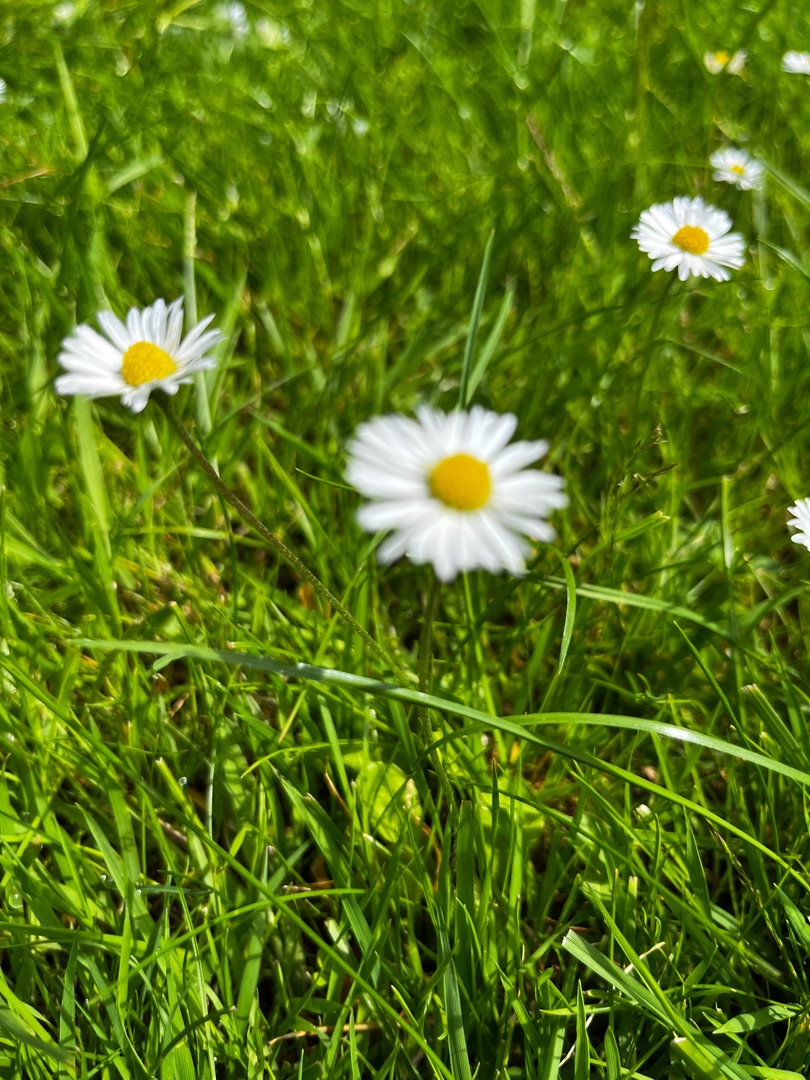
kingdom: Plantae
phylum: Tracheophyta
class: Magnoliopsida
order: Asterales
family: Asteraceae
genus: Bellis
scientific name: Bellis perennis
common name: Tusindfryd
